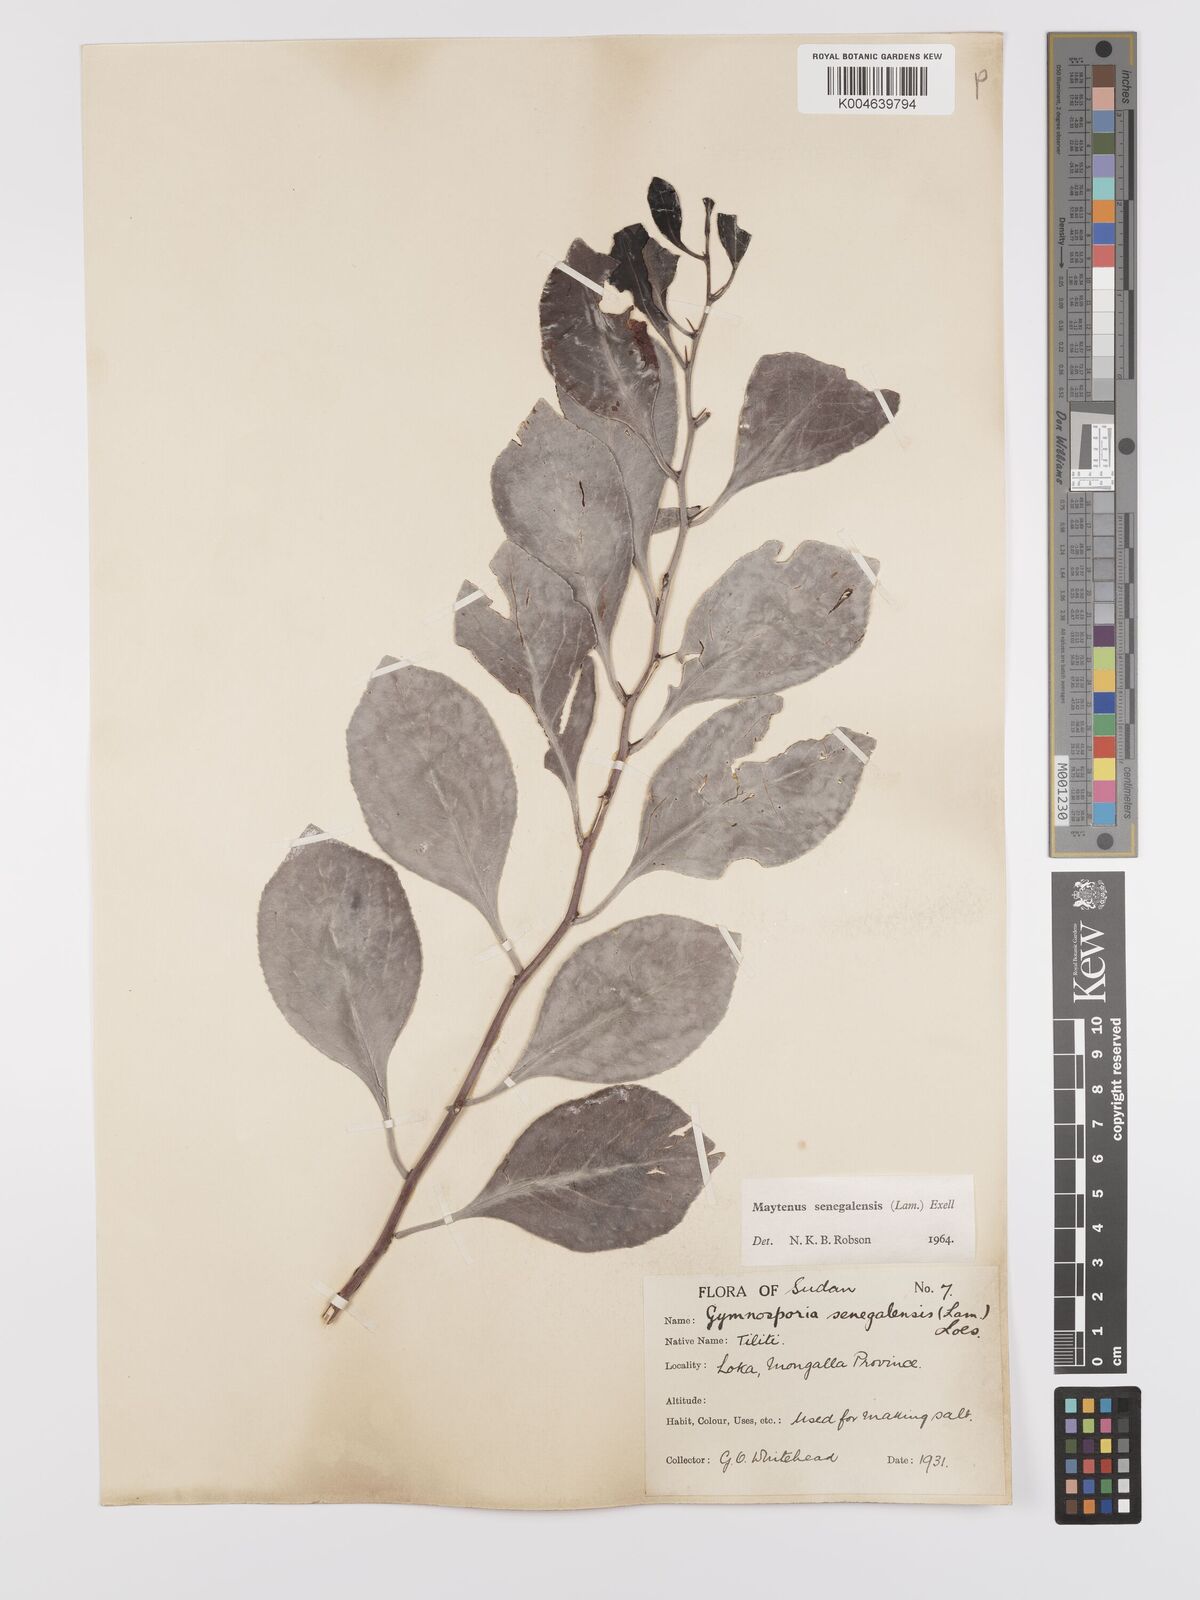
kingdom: Plantae
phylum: Tracheophyta
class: Magnoliopsida
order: Celastrales
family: Celastraceae
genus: Gymnosporia
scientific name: Gymnosporia senegalensis
